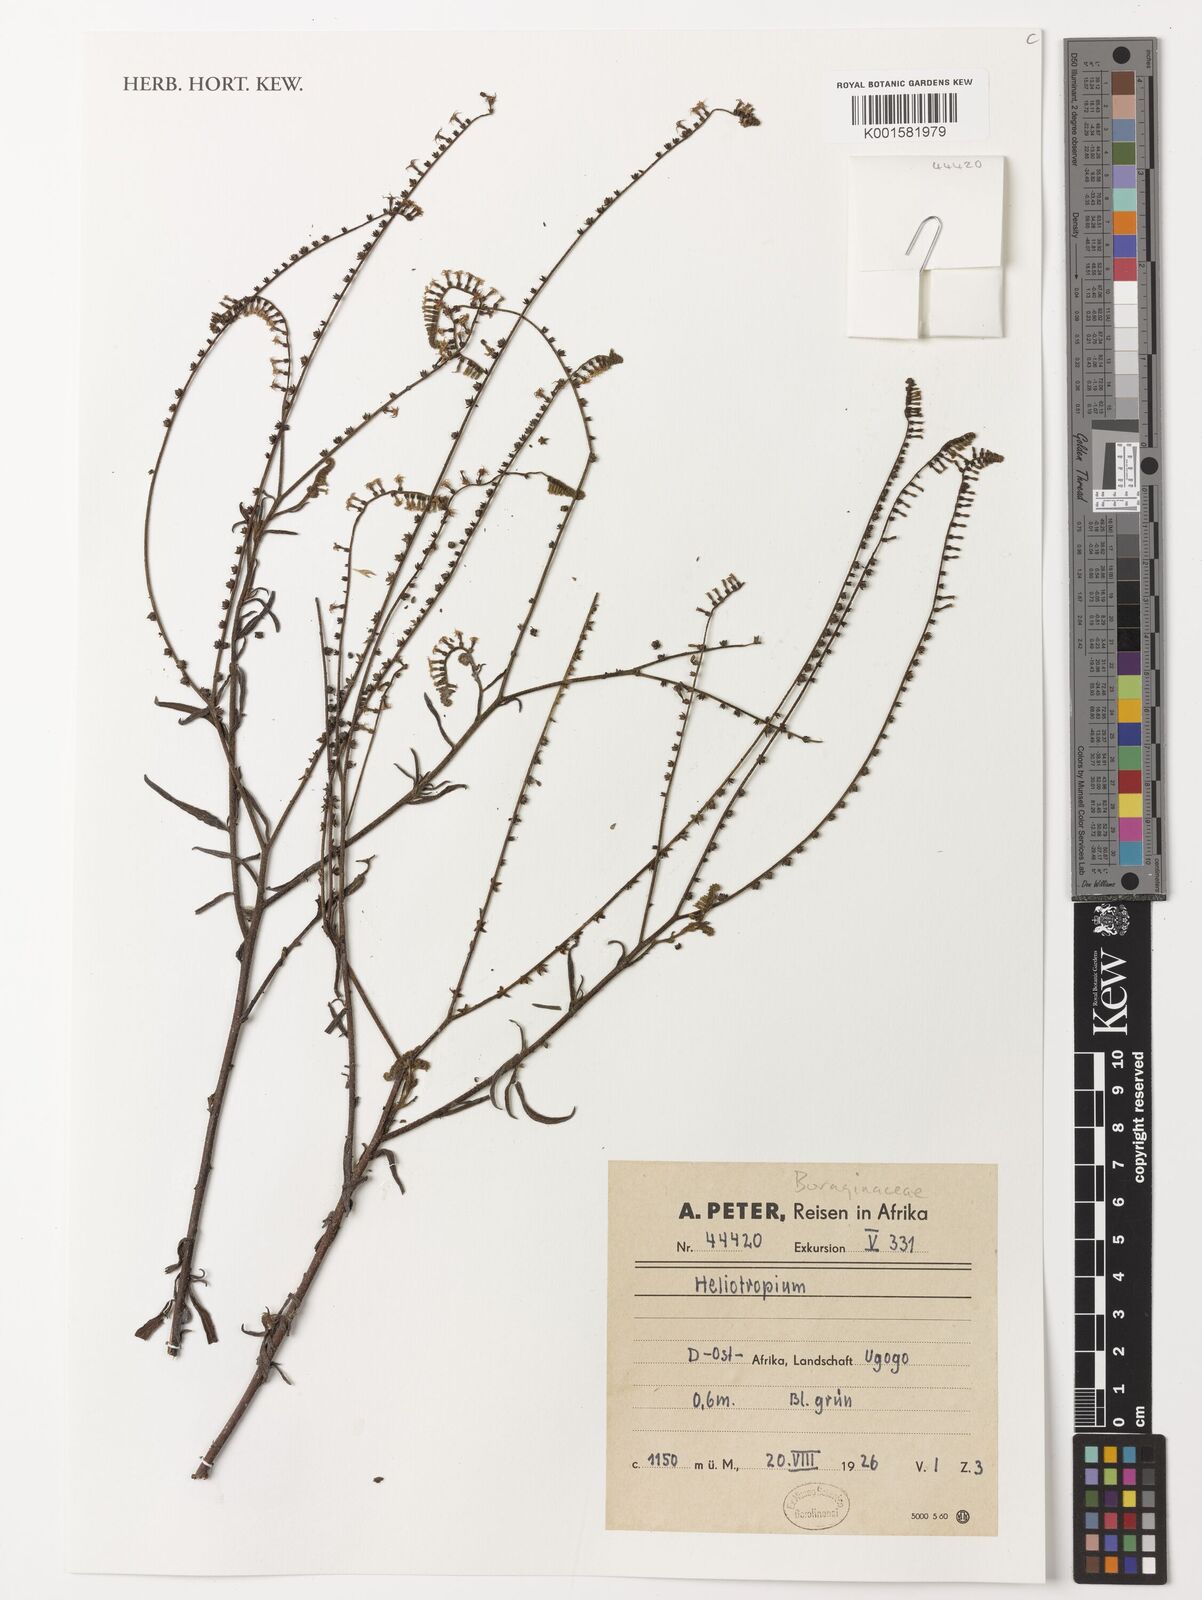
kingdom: Plantae
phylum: Tracheophyta
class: Magnoliopsida
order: Boraginales
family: Heliotropiaceae
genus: Heliotropium
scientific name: Heliotropium
